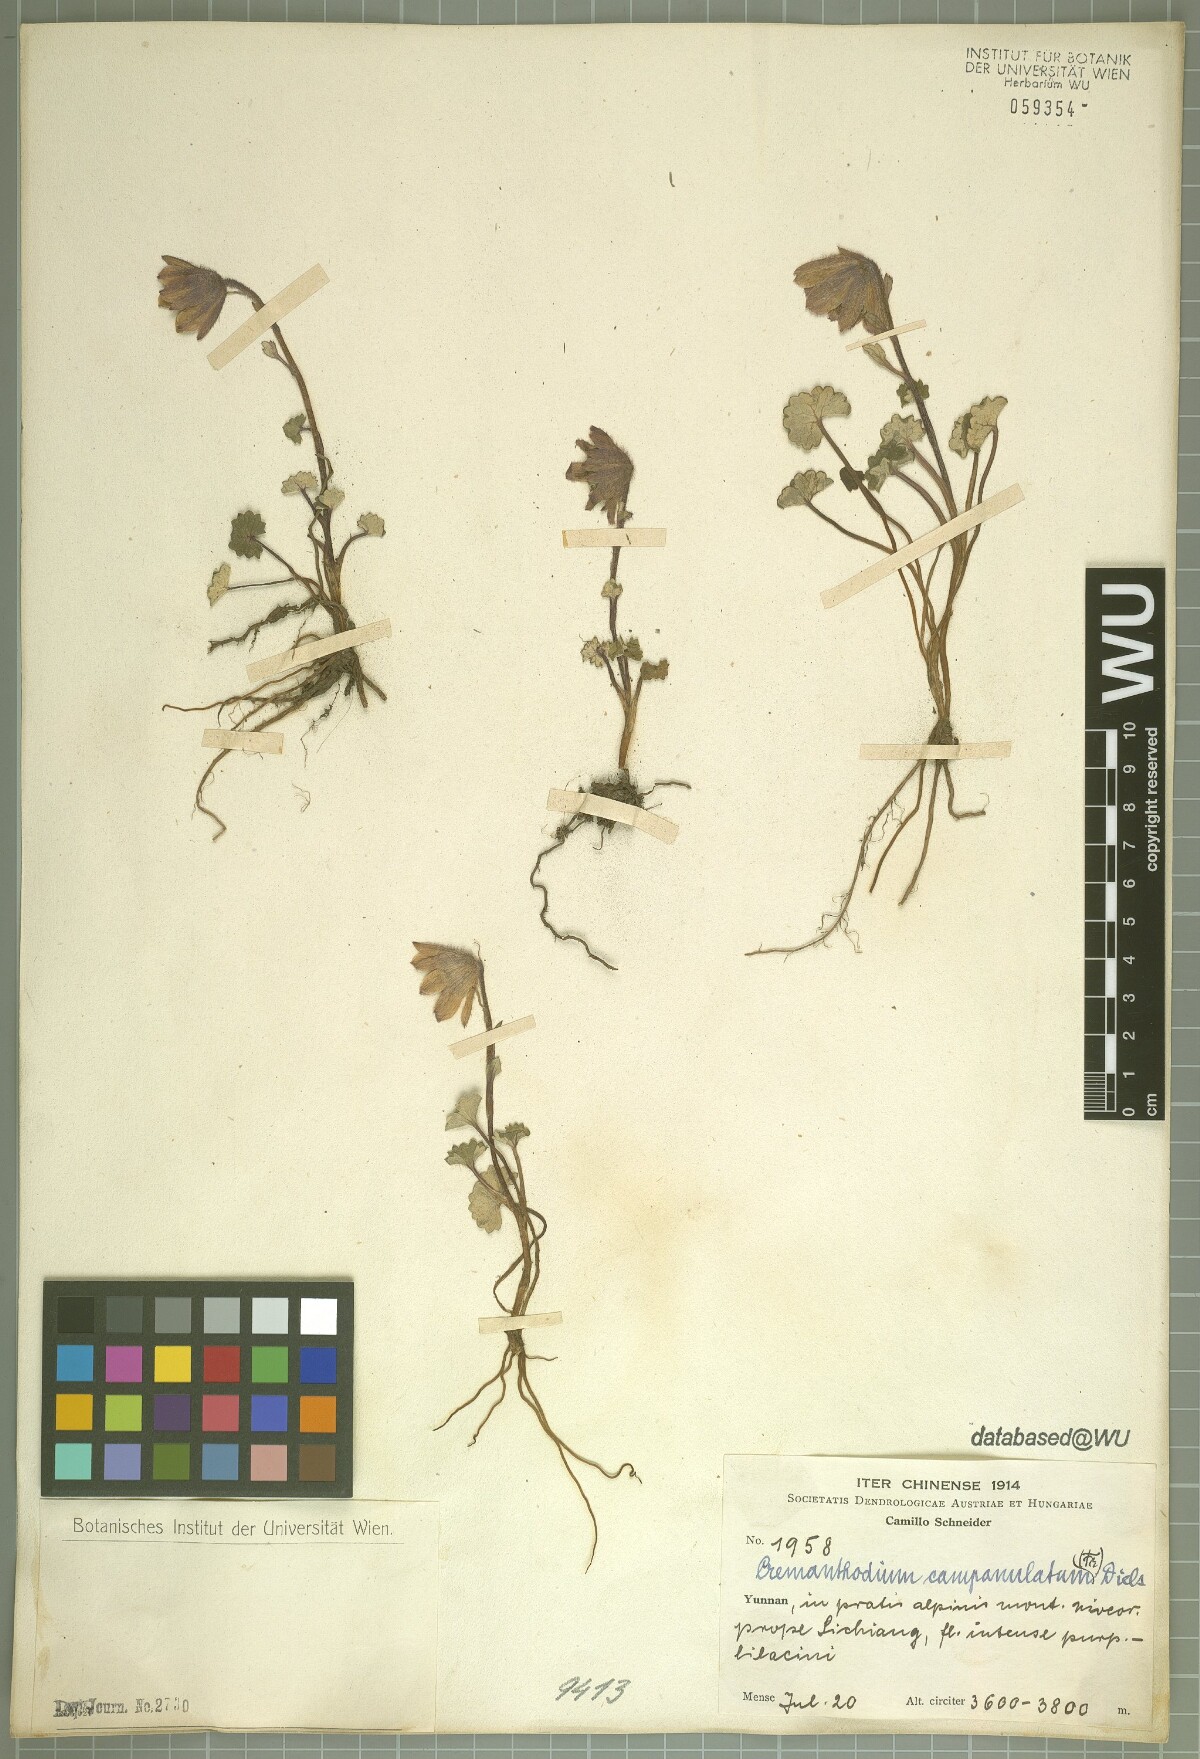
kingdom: Plantae
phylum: Tracheophyta
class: Magnoliopsida
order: Asterales
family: Asteraceae
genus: Cremanthodium
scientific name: Cremanthodium campanulatum
